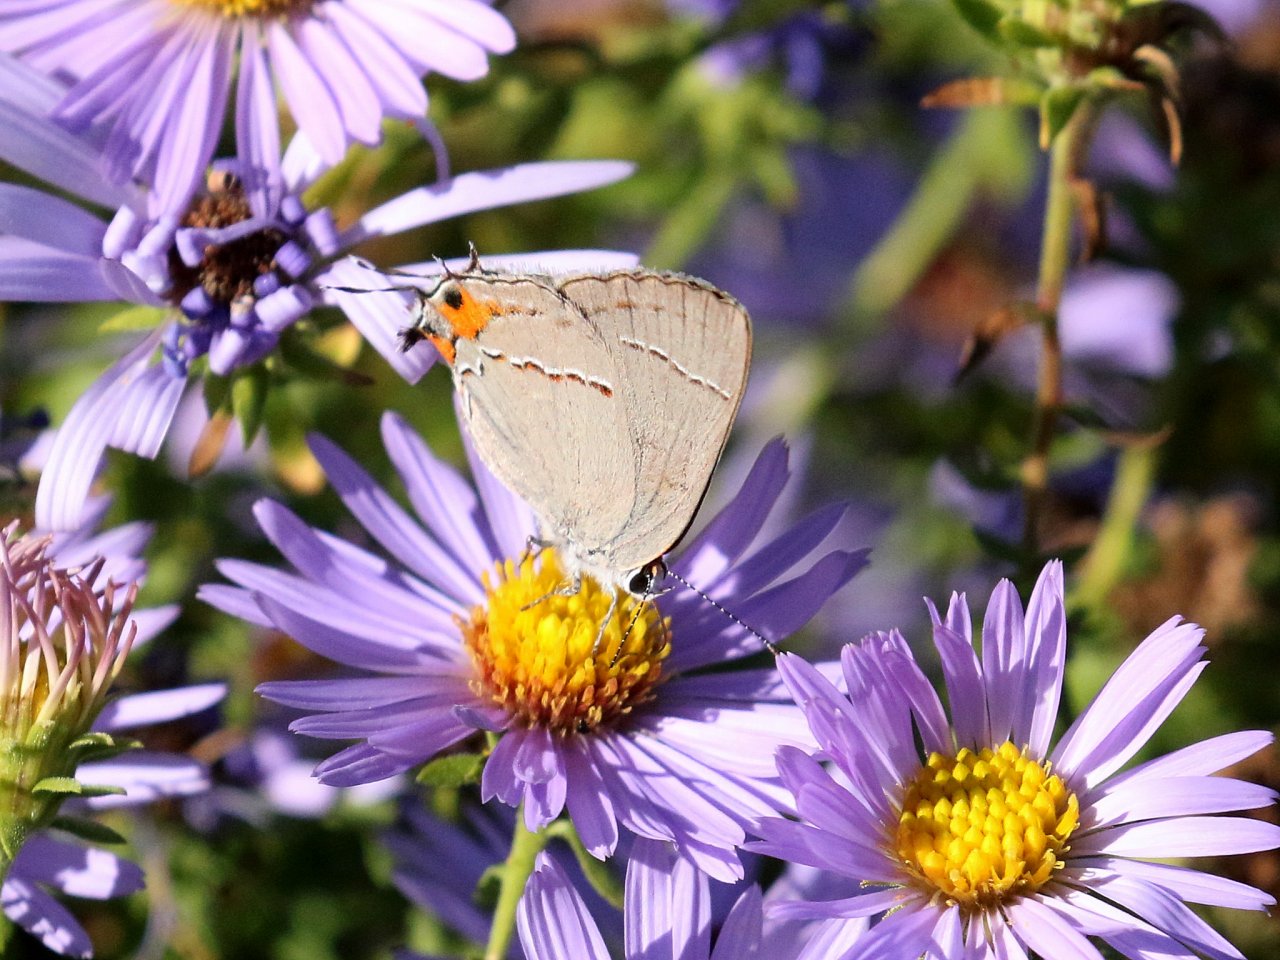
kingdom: Animalia
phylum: Arthropoda
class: Insecta
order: Lepidoptera
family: Lycaenidae
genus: Strymon
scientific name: Strymon melinus
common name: Gray Hairstreak
